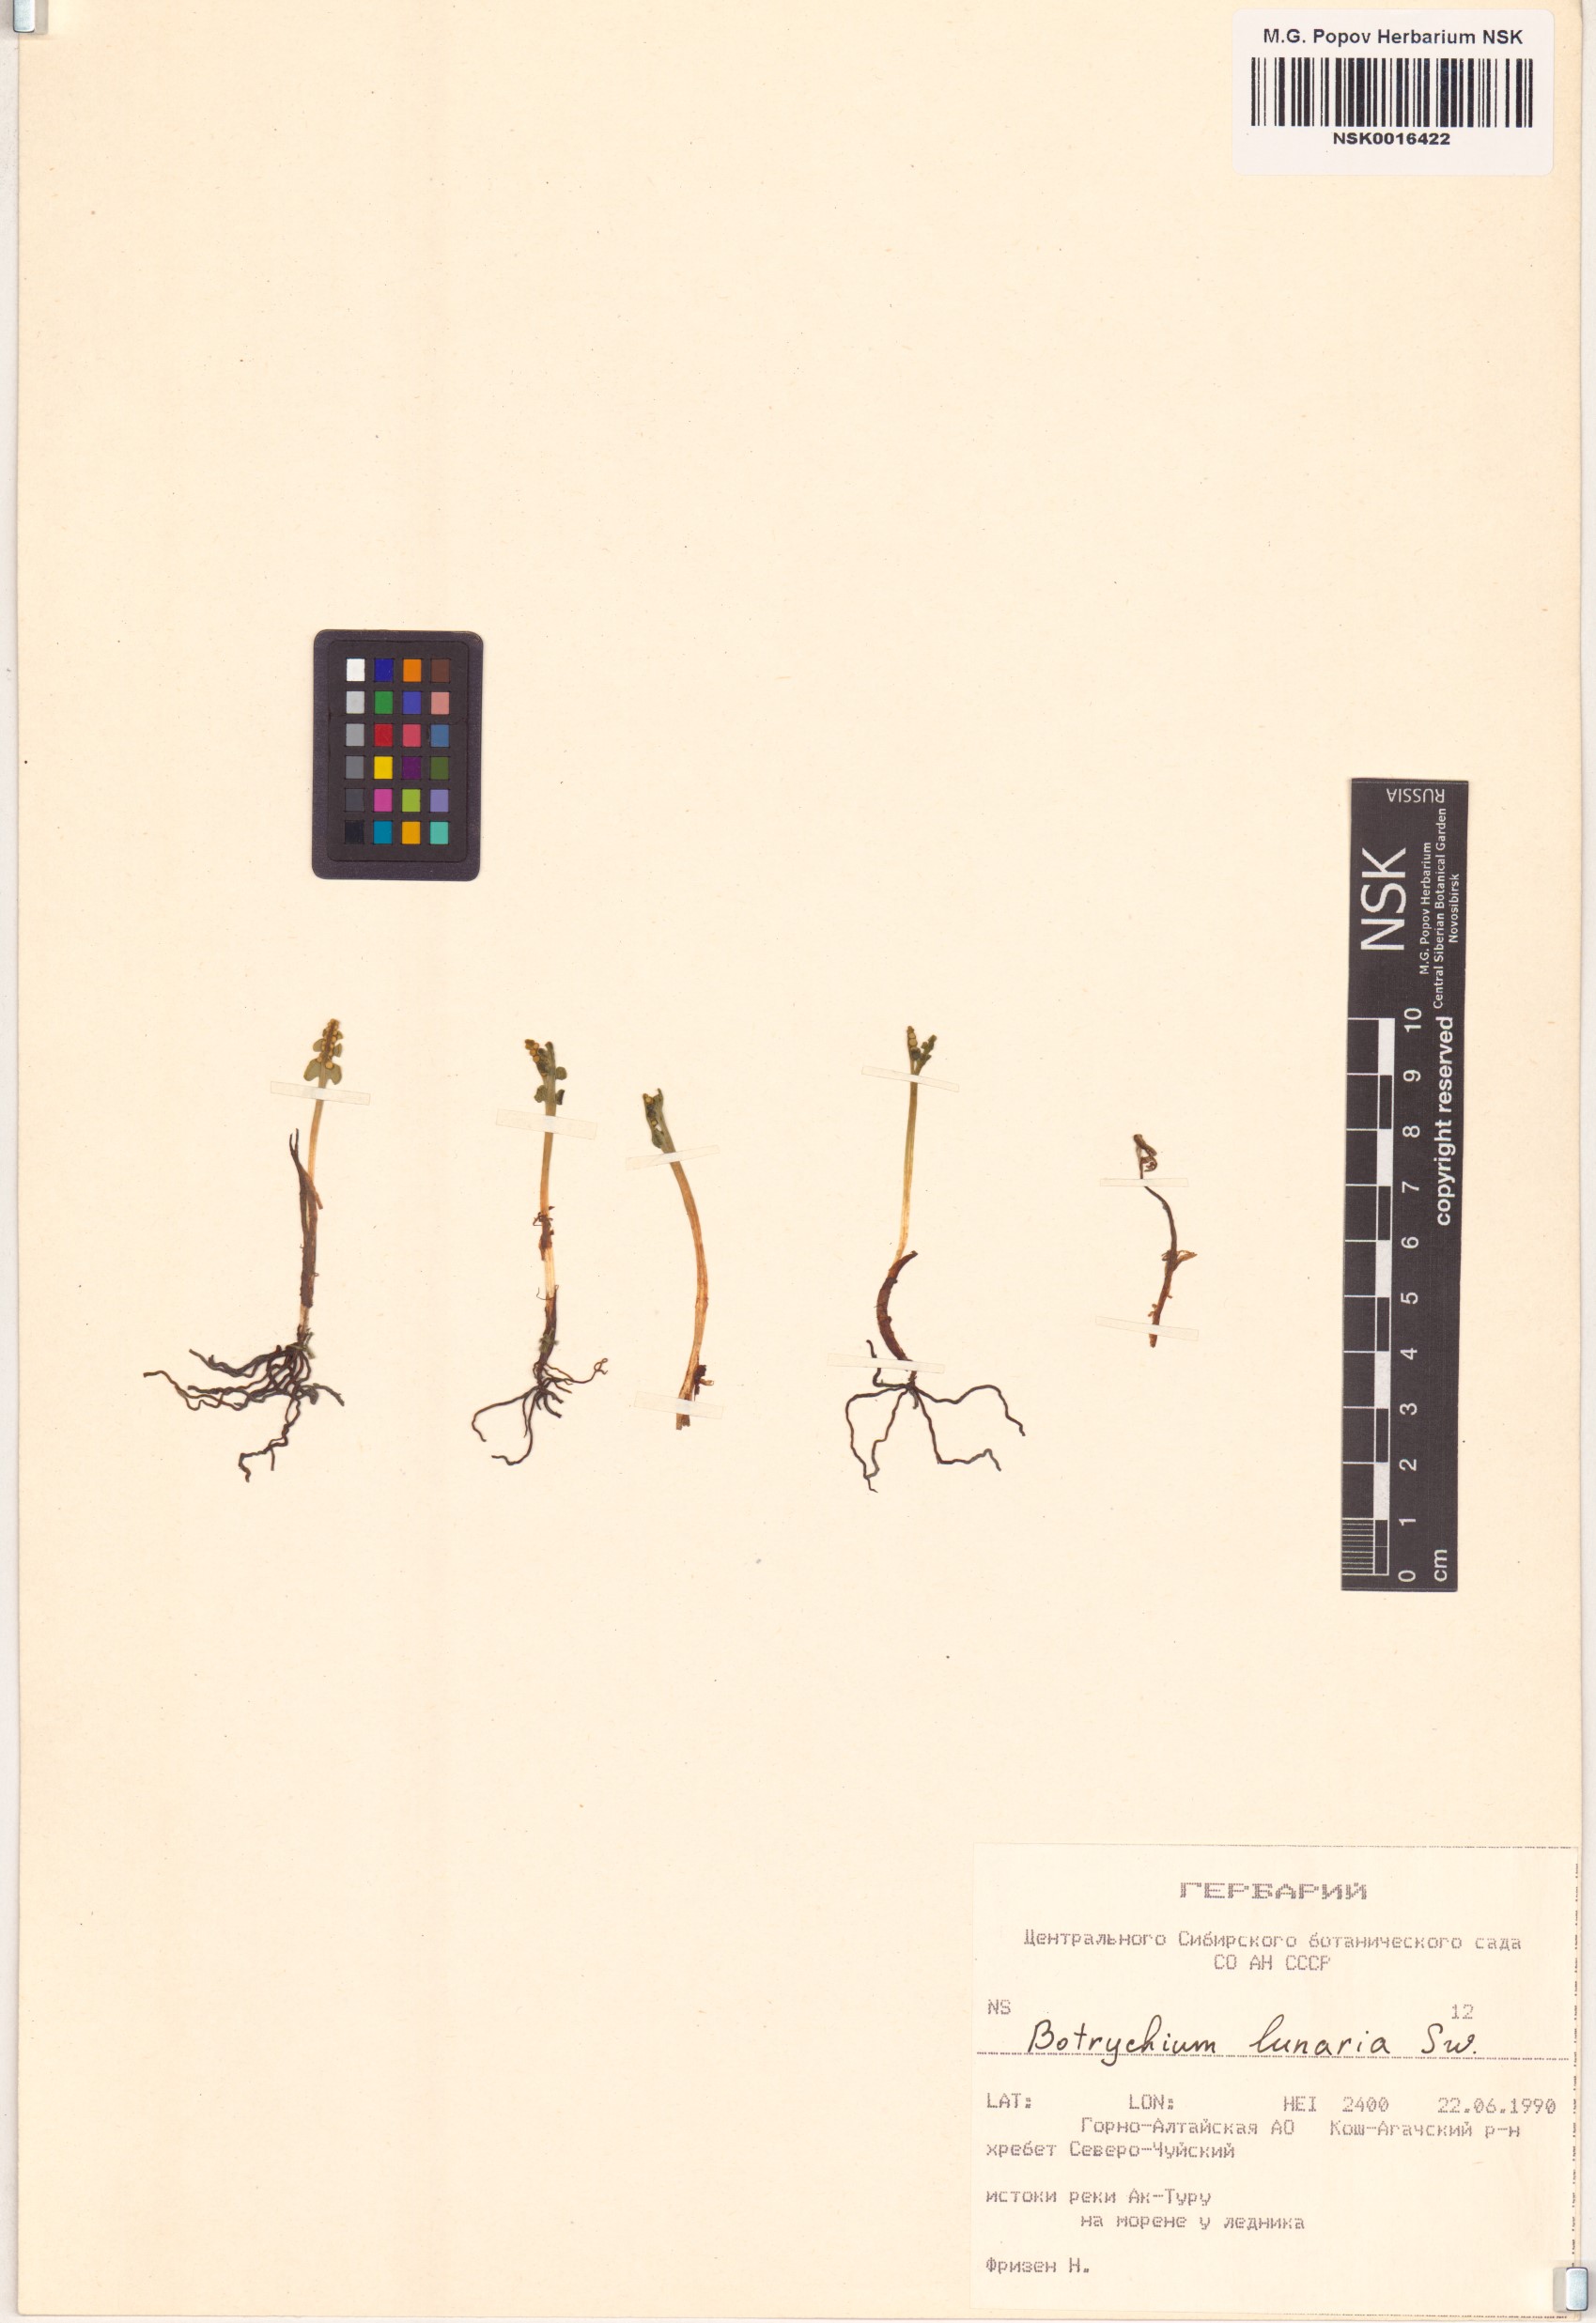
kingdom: Plantae
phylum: Tracheophyta
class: Polypodiopsida
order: Ophioglossales
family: Ophioglossaceae
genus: Botrychium
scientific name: Botrychium lunaria
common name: Moonwort
